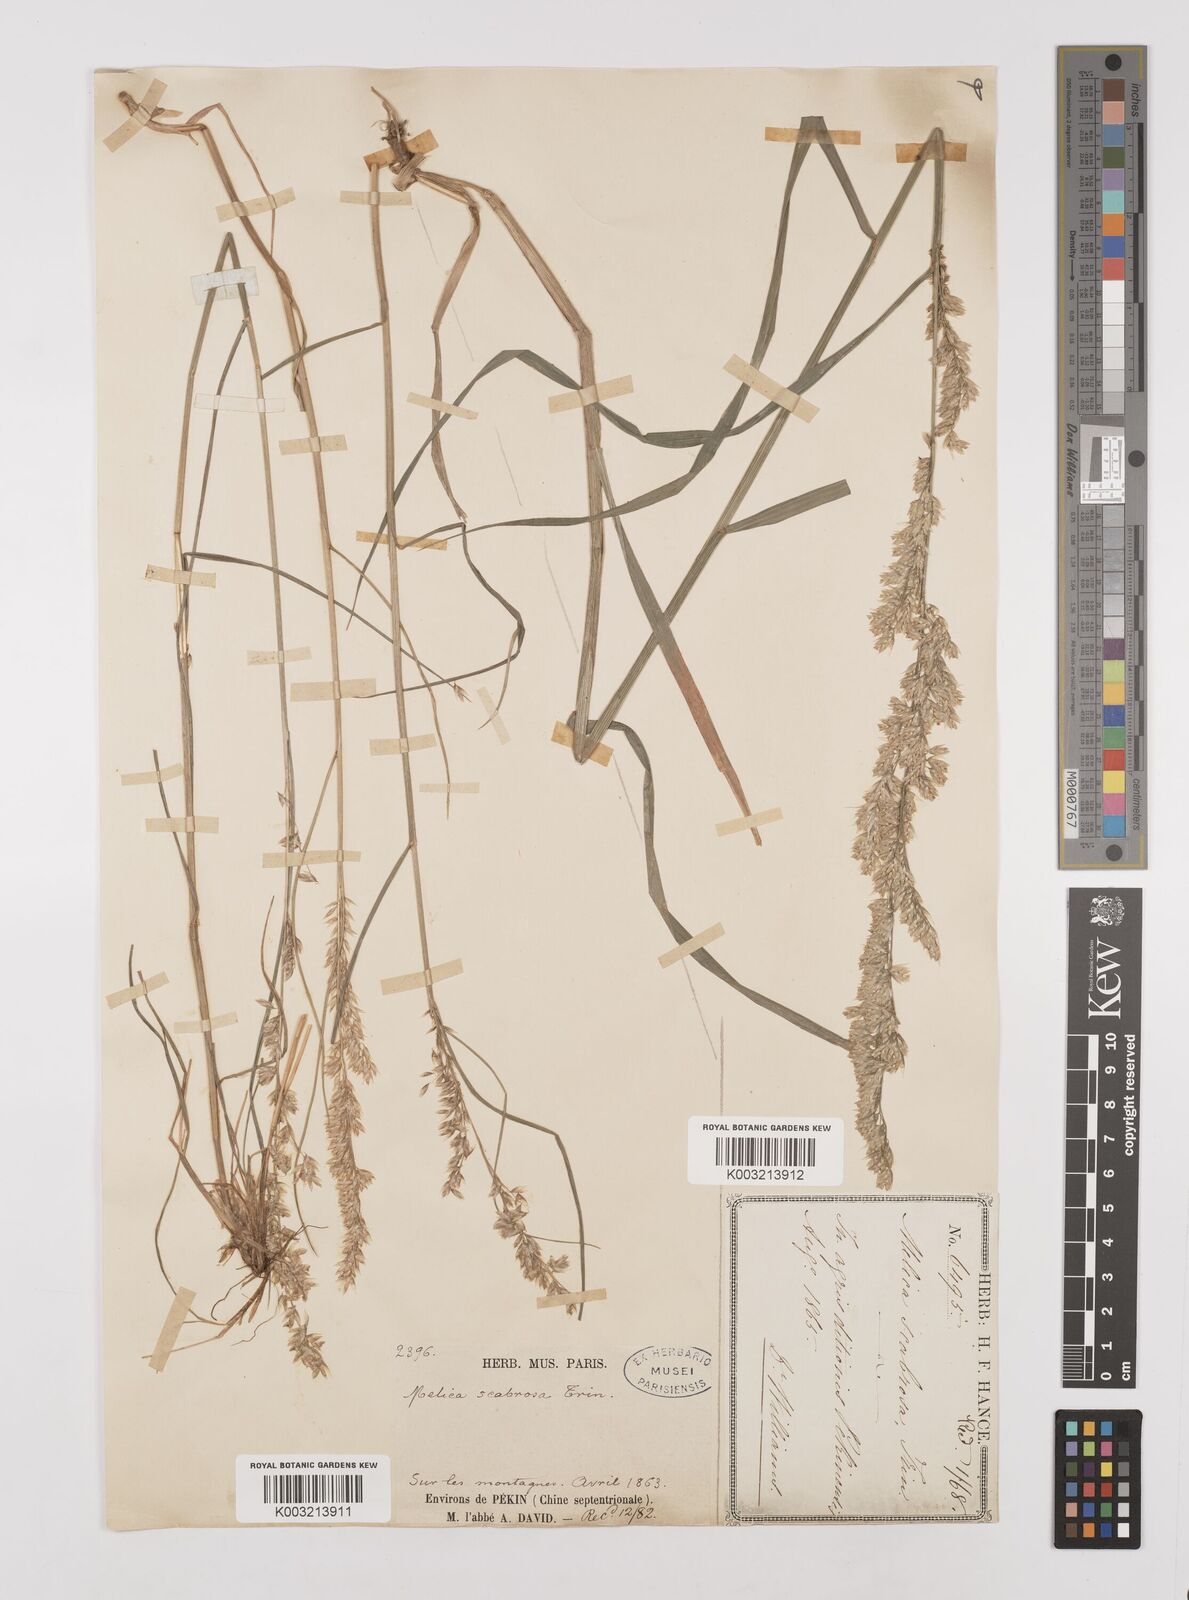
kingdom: Plantae
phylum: Tracheophyta
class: Liliopsida
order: Poales
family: Poaceae
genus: Melica
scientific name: Melica scabrosa
